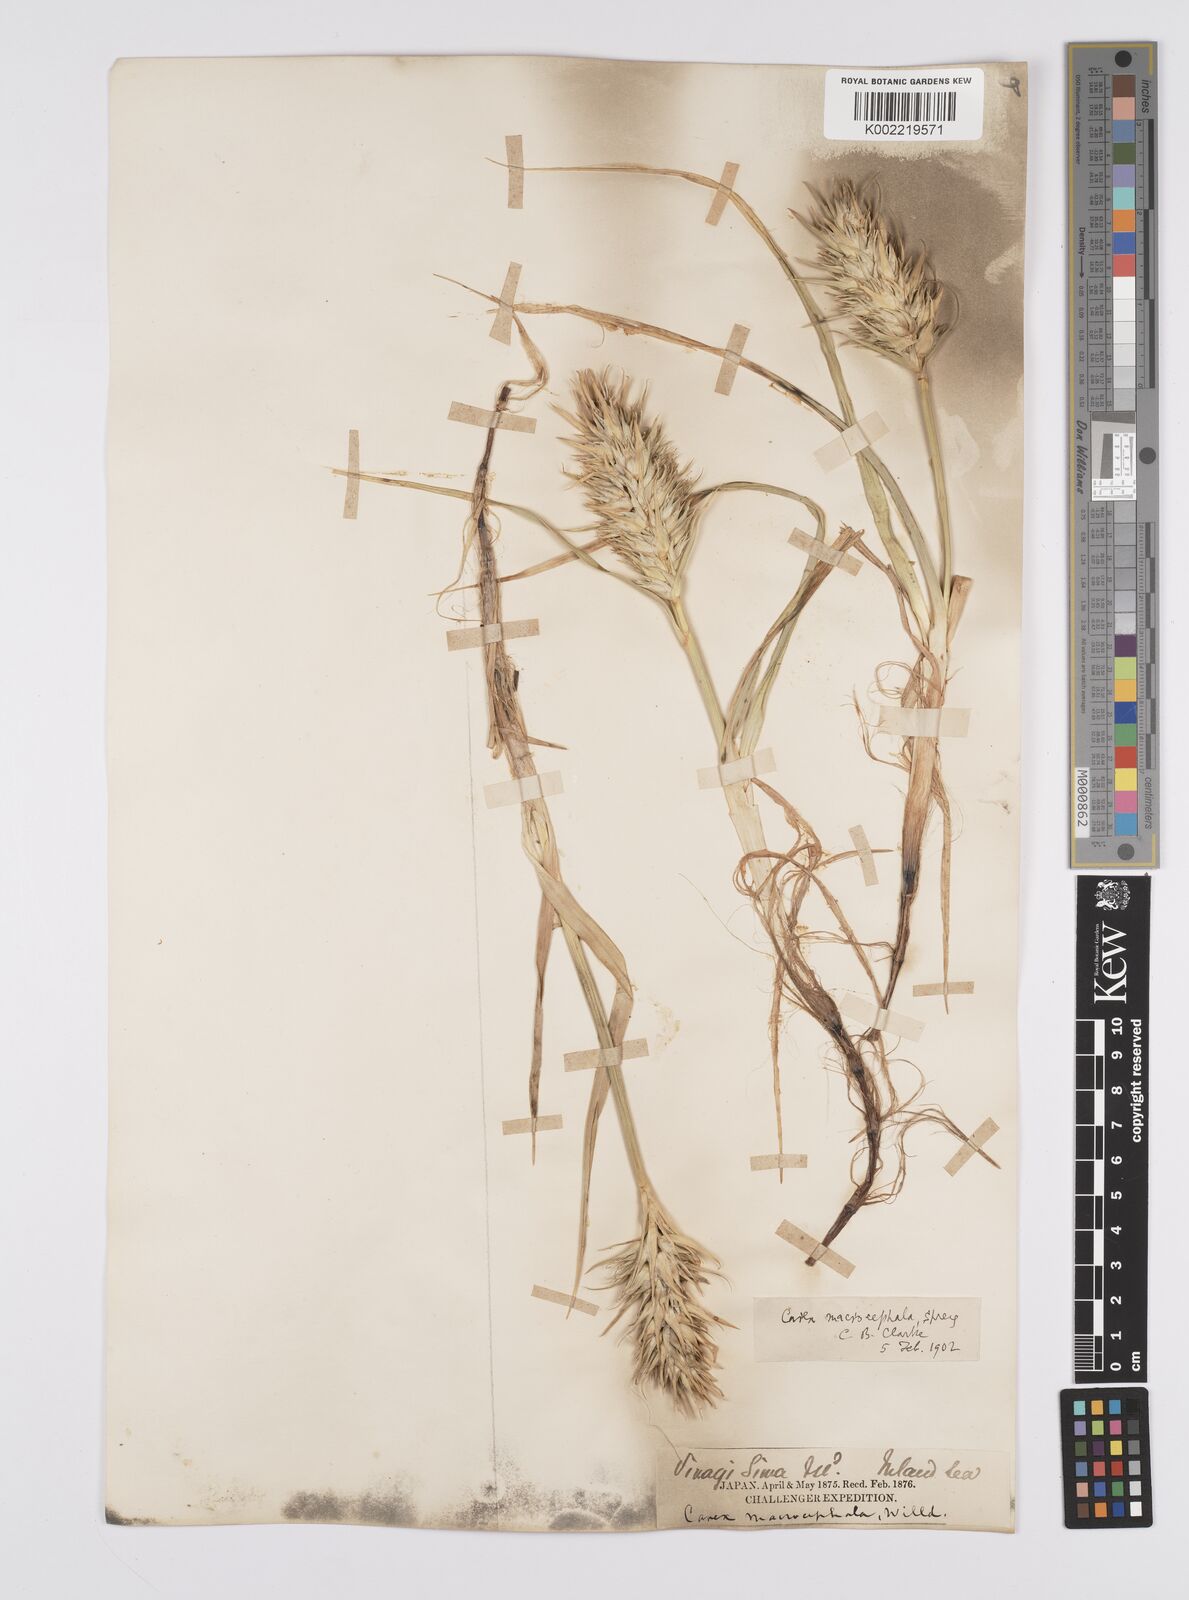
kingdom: Plantae
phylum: Tracheophyta
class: Liliopsida
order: Poales
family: Cyperaceae
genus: Carex
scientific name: Carex macrocephala
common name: Large-head sedge
